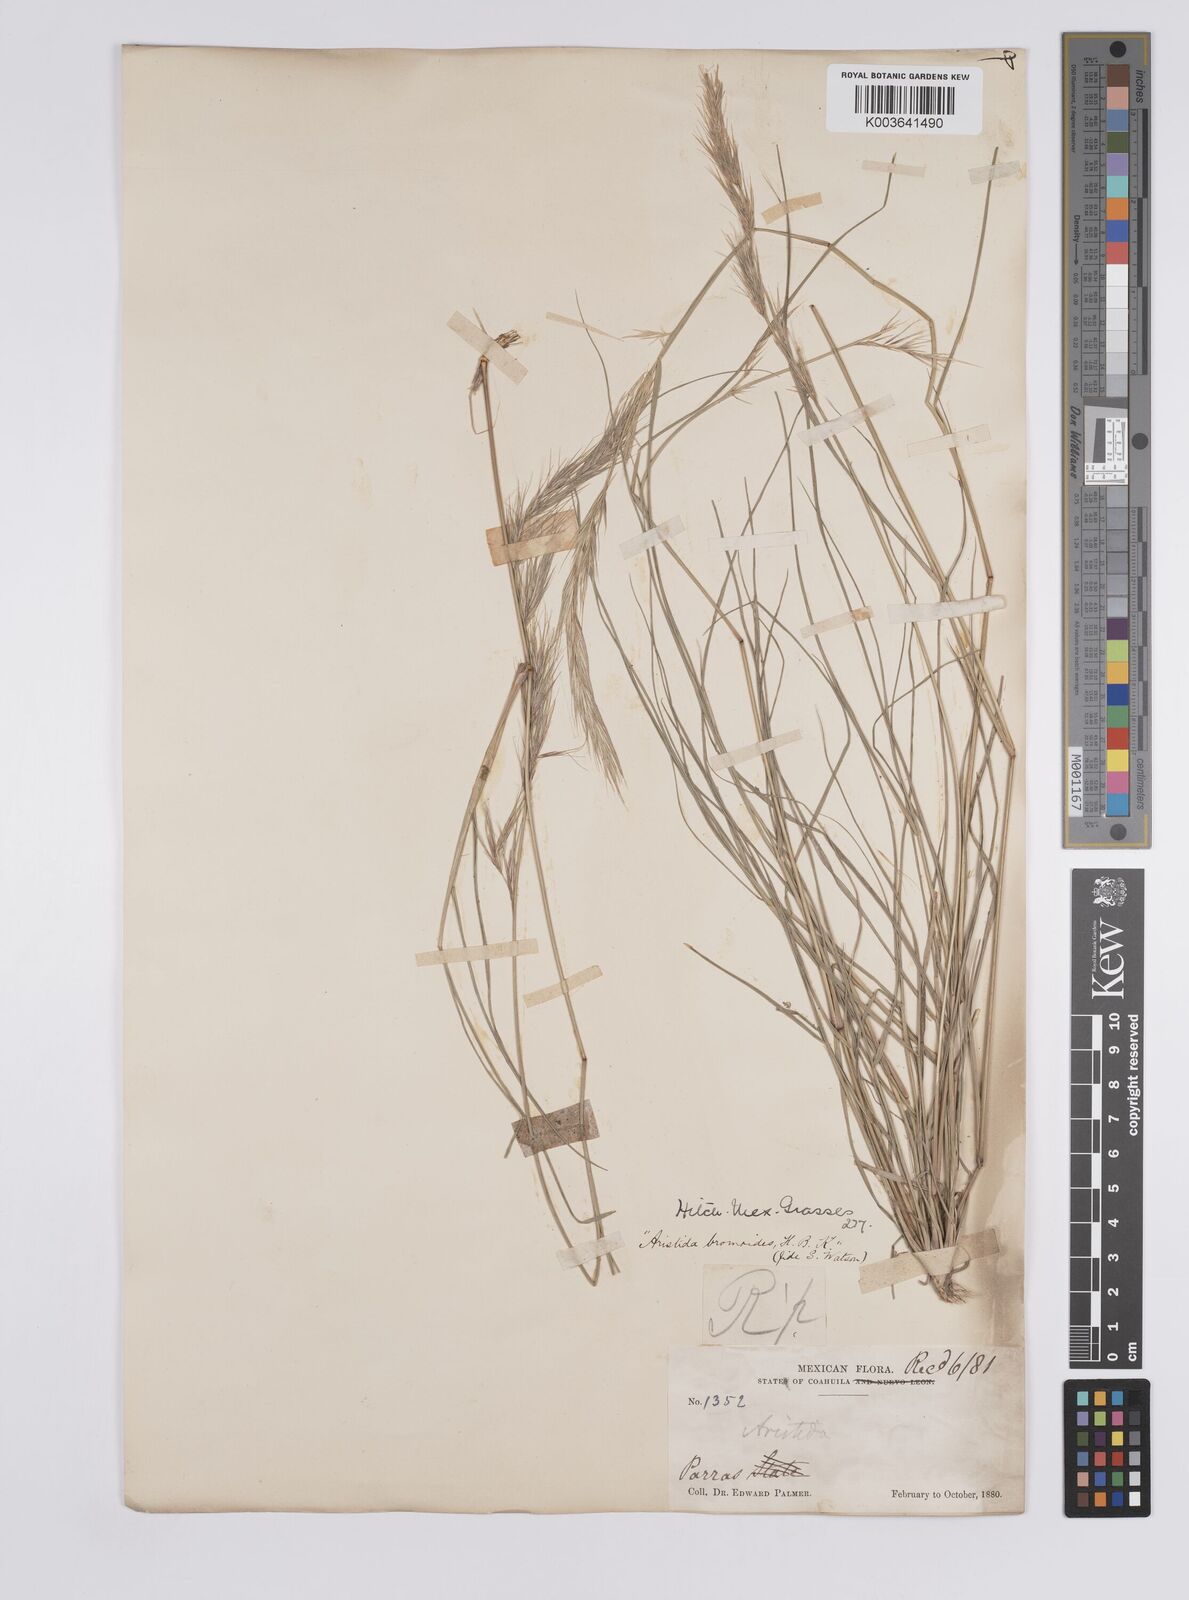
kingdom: Plantae
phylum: Tracheophyta
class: Liliopsida
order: Poales
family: Poaceae
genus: Aristida
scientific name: Aristida adscensionis
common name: Sixweeks threeawn
